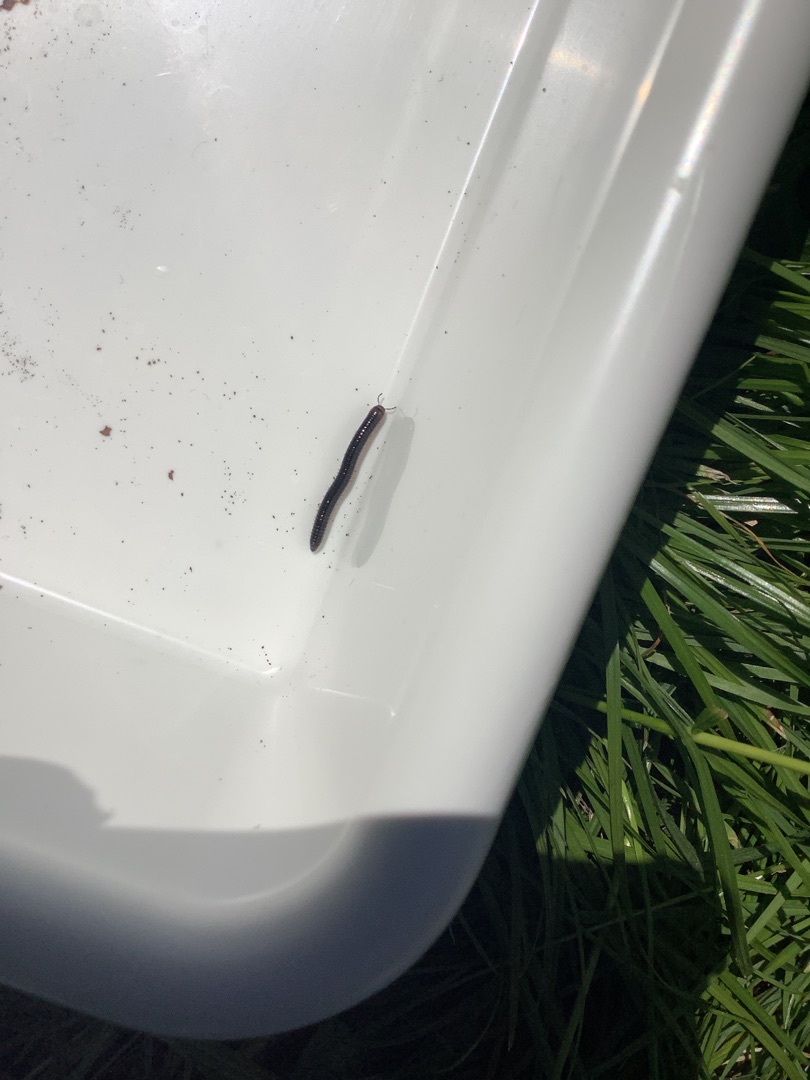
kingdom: Animalia
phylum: Arthropoda
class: Diplopoda
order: Julida
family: Julidae
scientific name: Julidae
